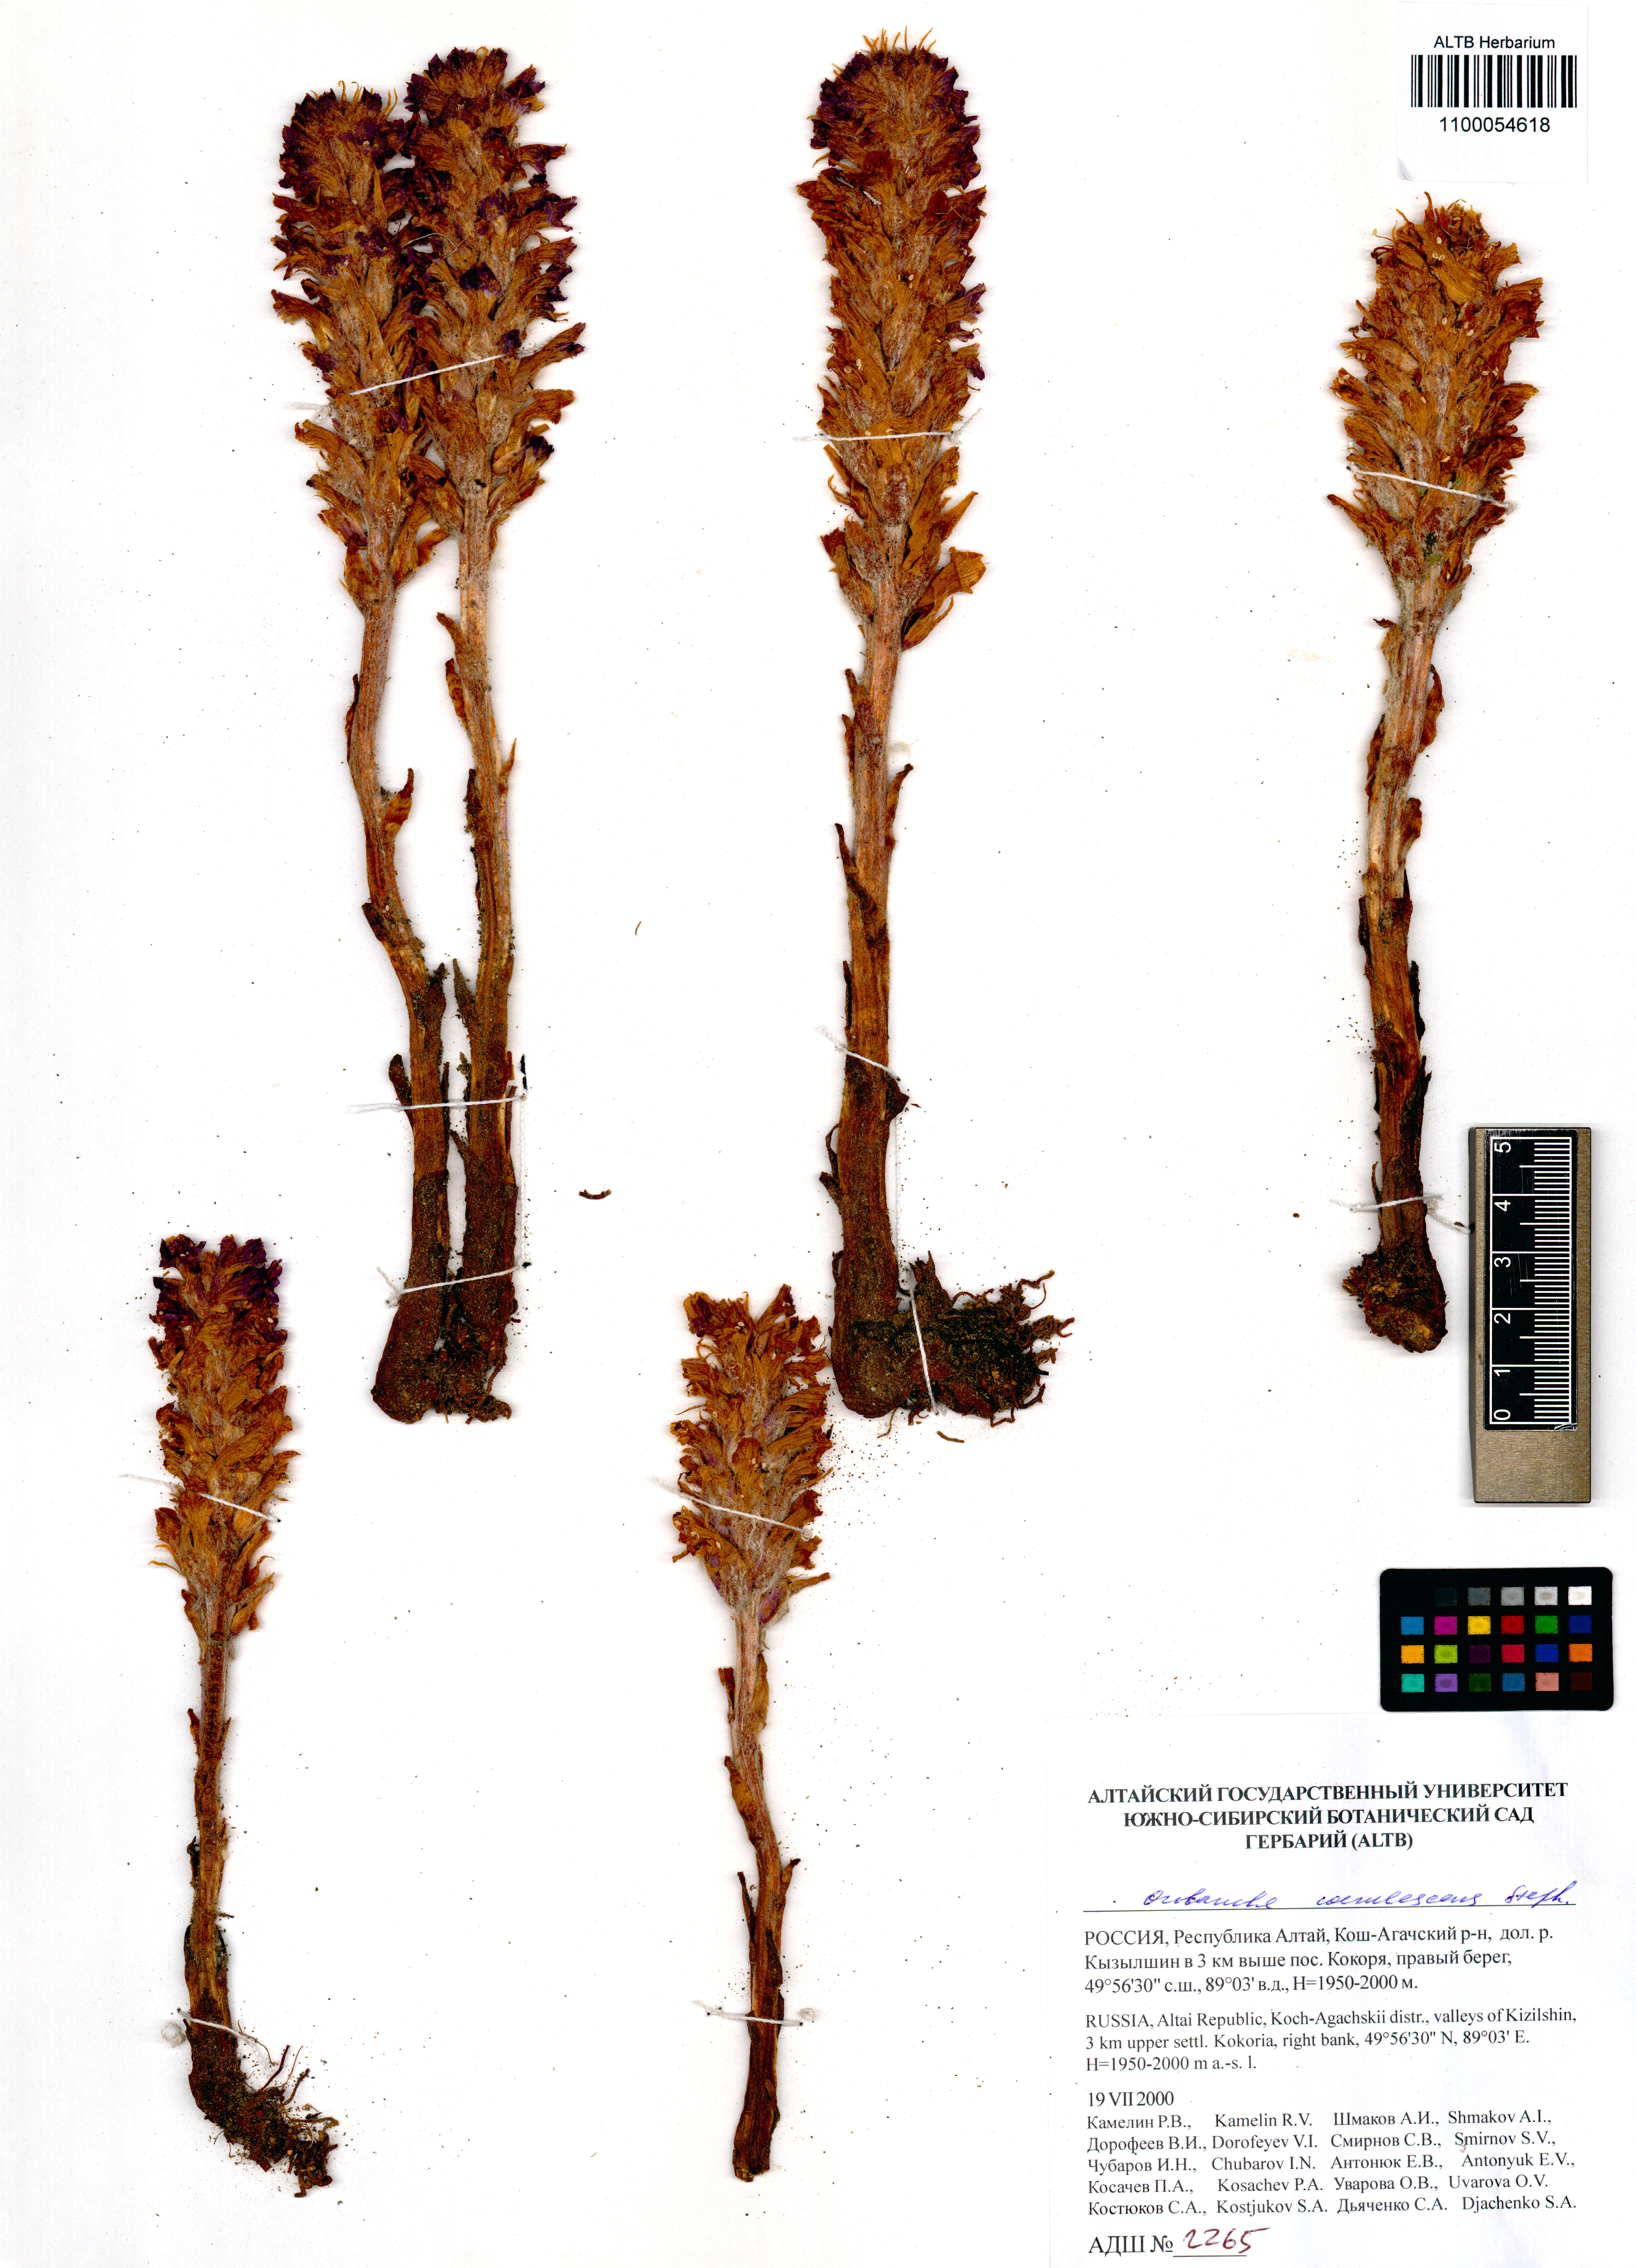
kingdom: Plantae
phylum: Tracheophyta
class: Magnoliopsida
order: Lamiales
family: Orobanchaceae
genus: Orobanche
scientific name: Orobanche coerulescens
